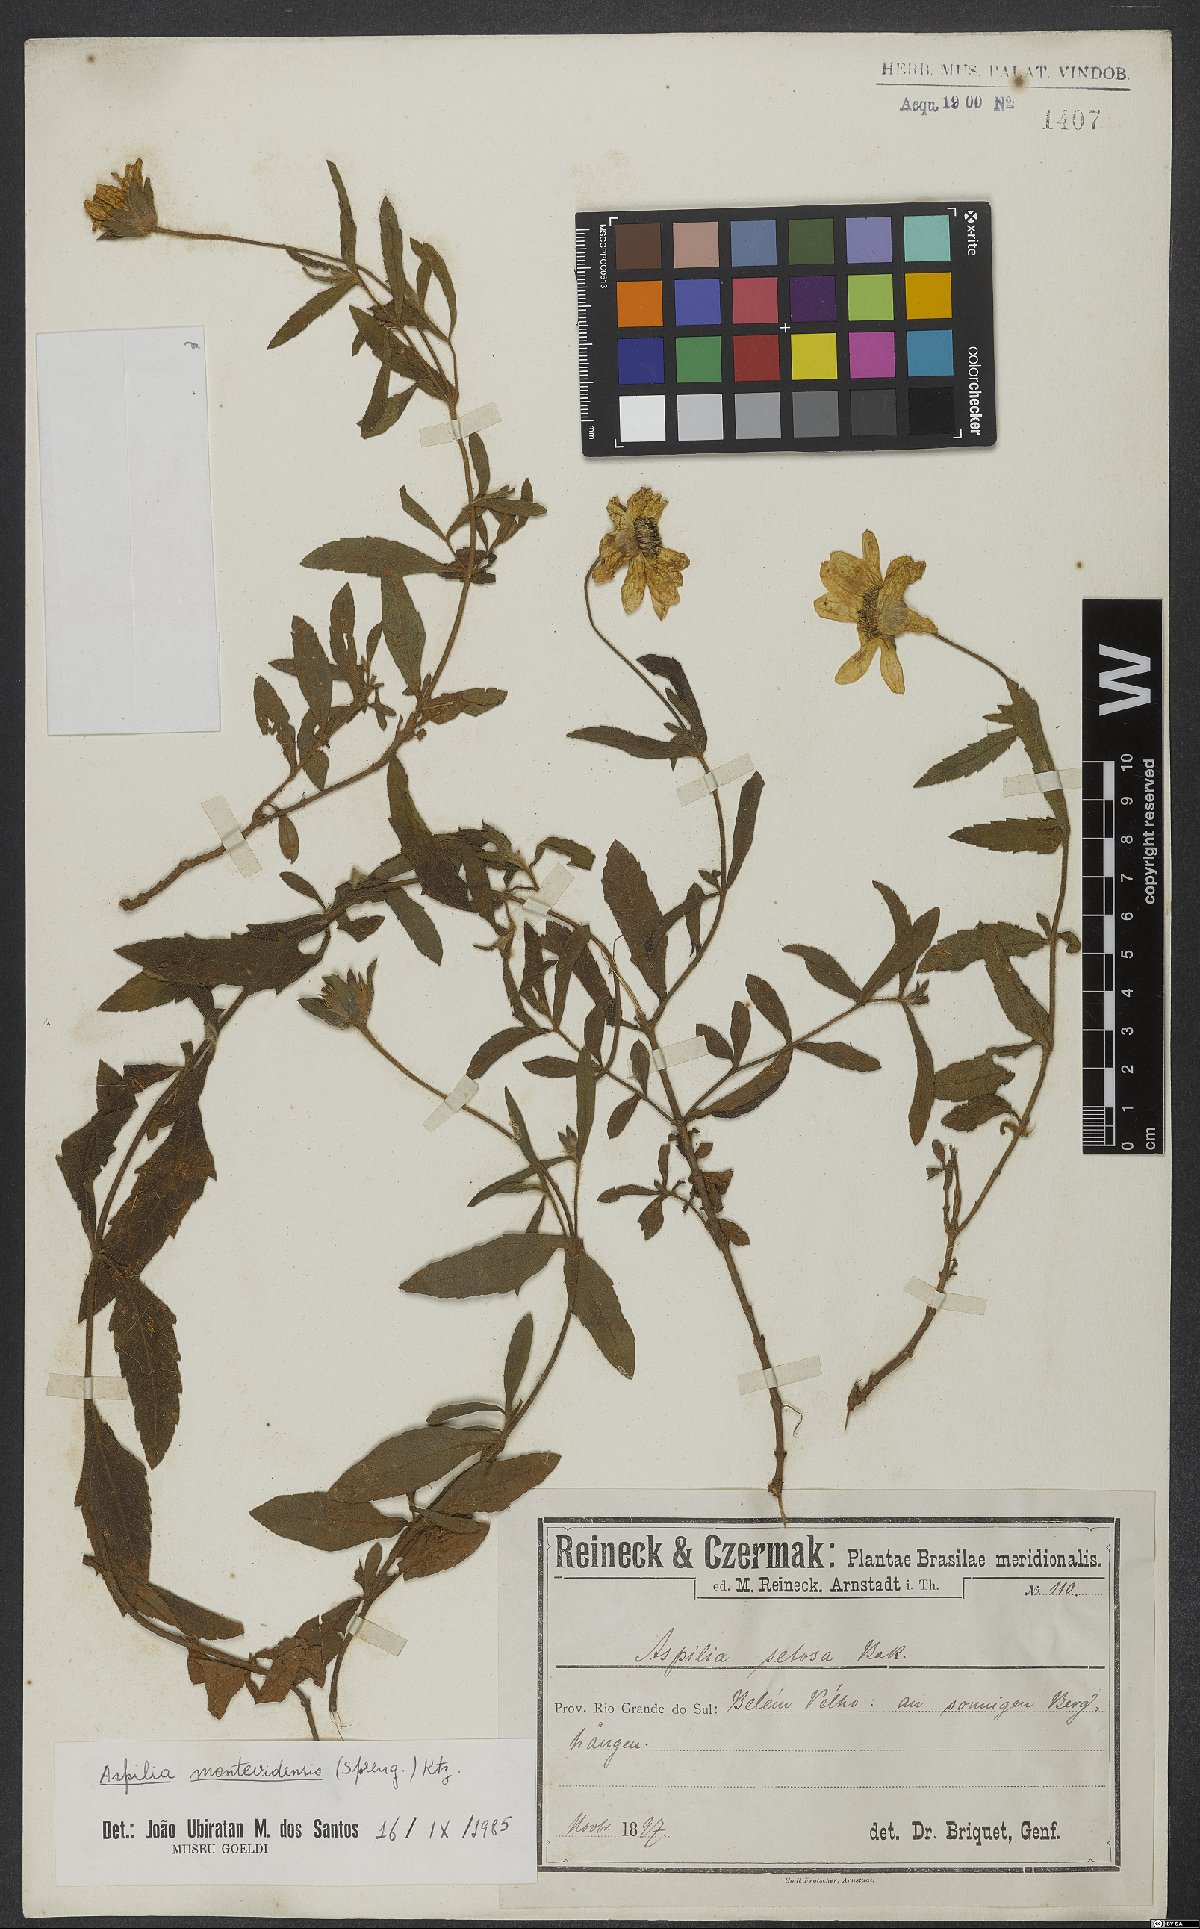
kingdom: Plantae
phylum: Tracheophyta
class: Magnoliopsida
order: Asterales
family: Asteraceae
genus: Wedelia
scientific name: Wedelia montevidensis
